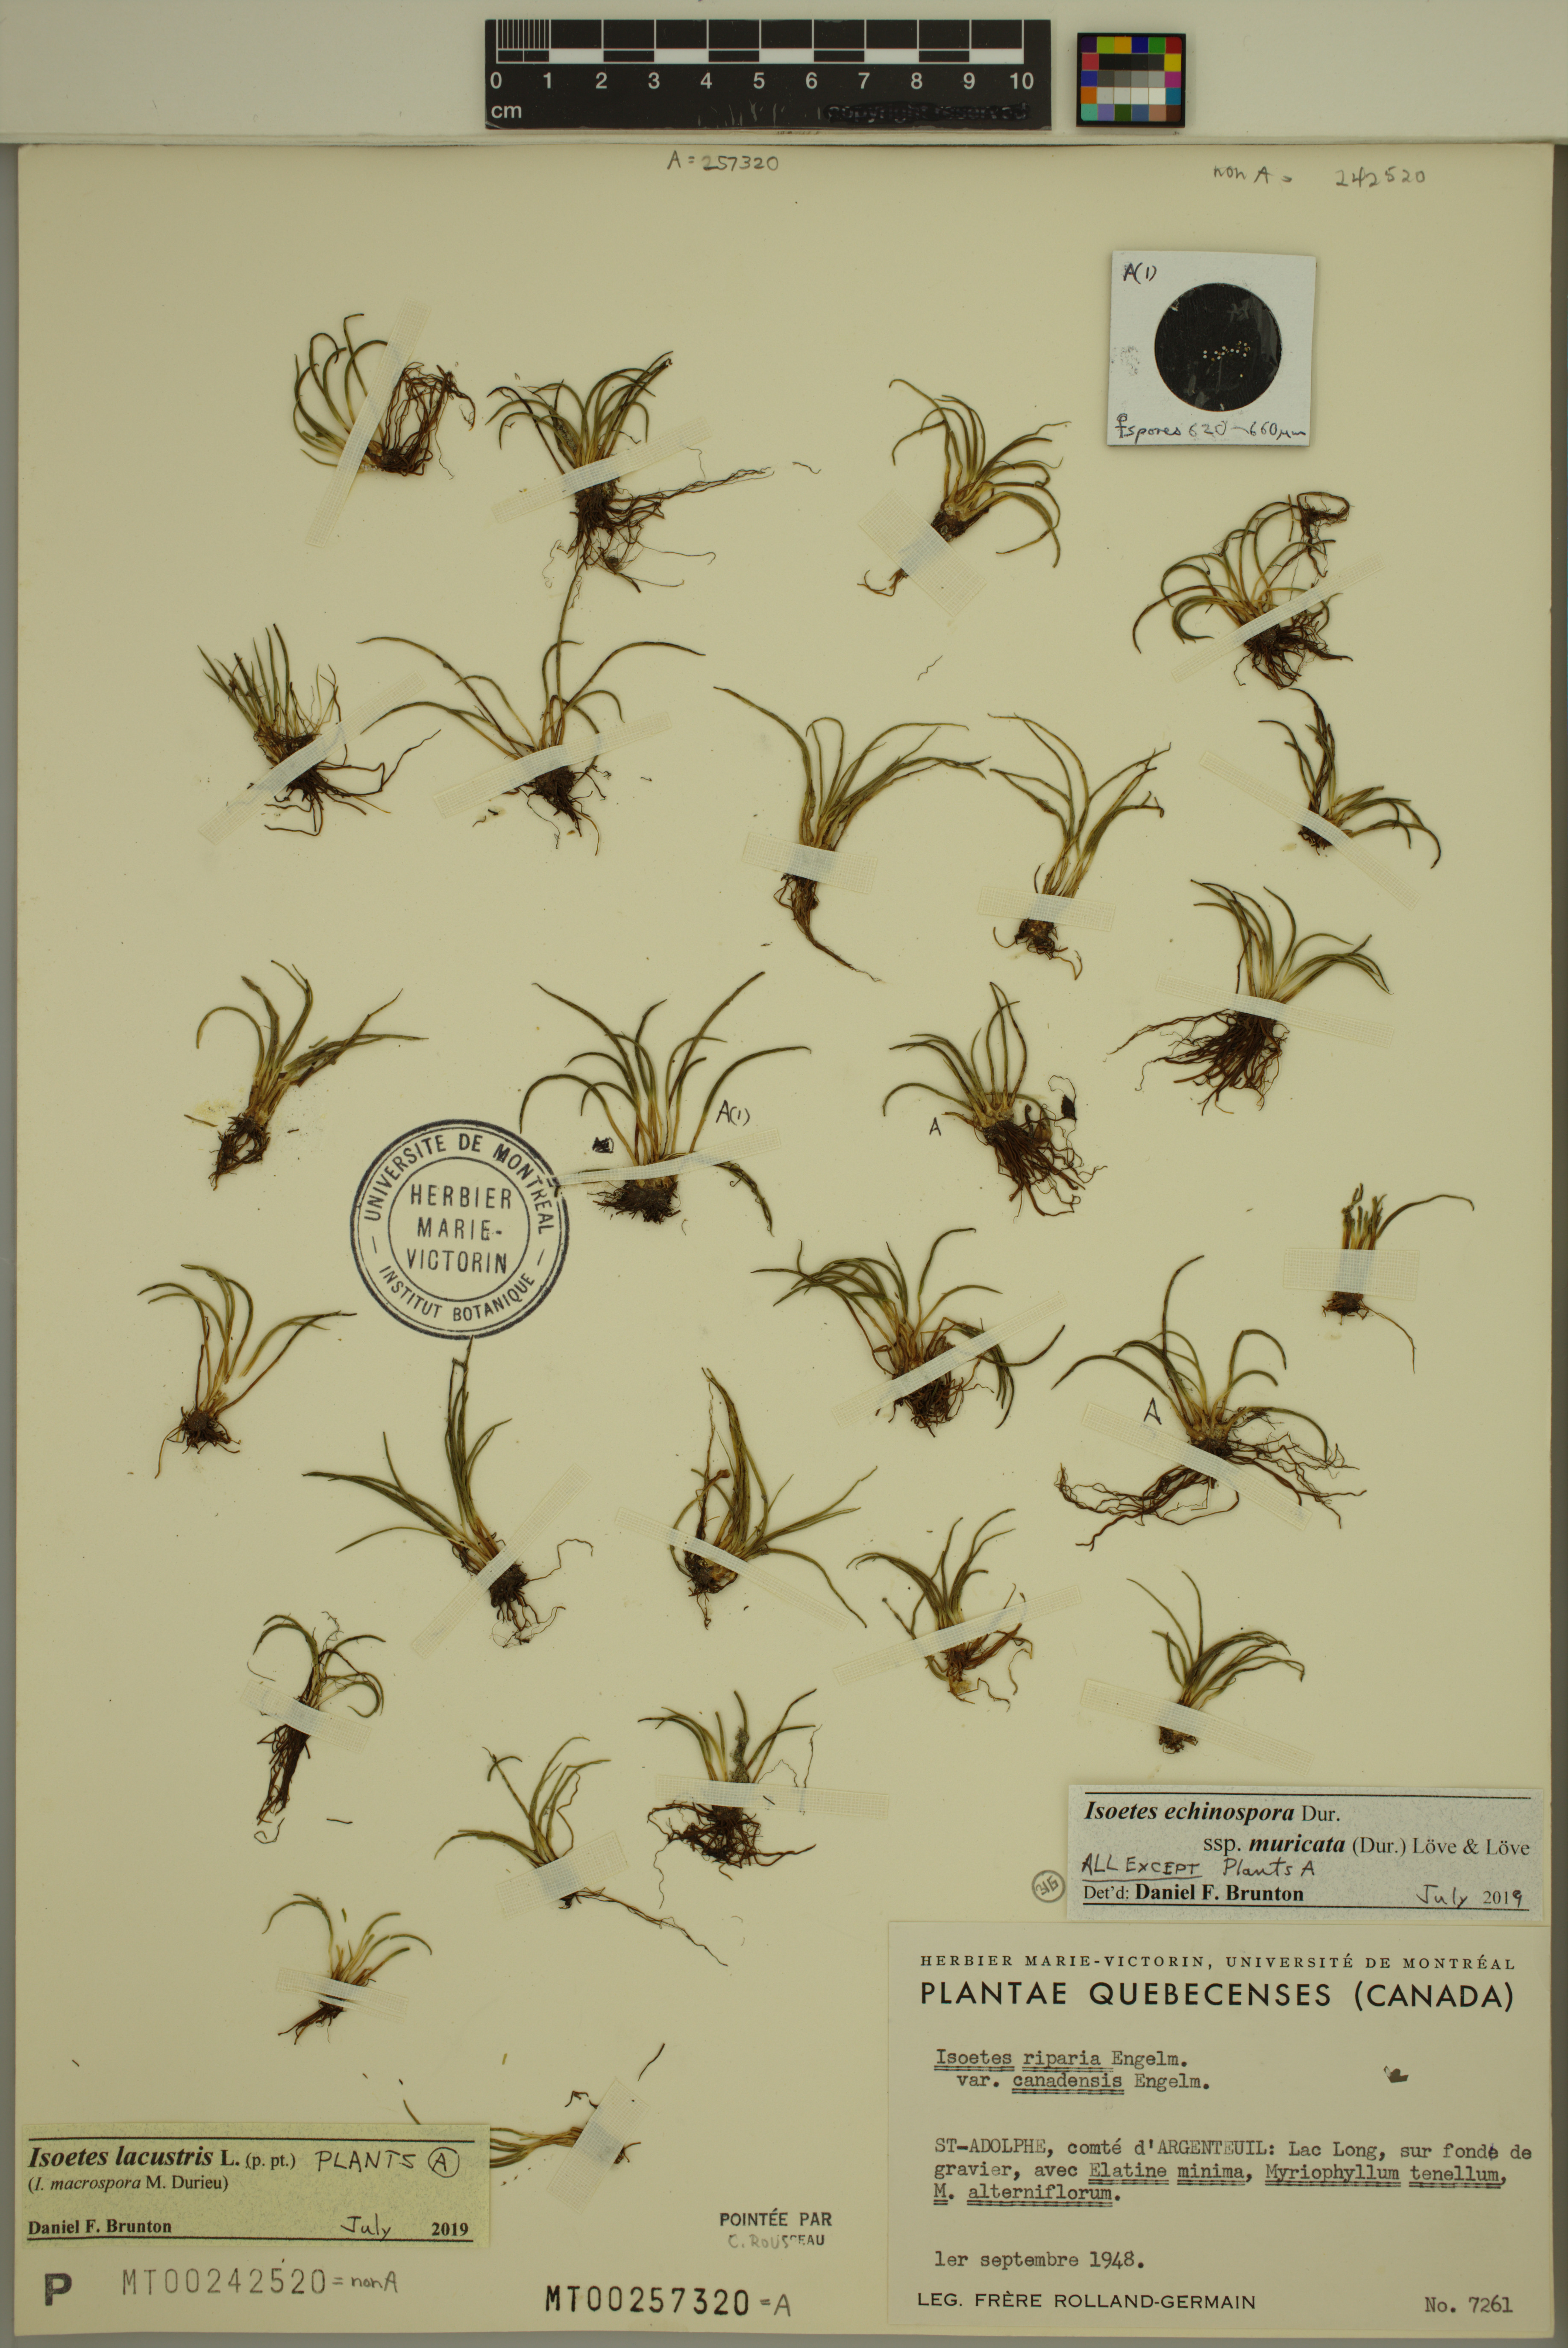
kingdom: Plantae
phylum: Tracheophyta
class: Lycopodiopsida
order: Isoetales
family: Isoetaceae
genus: Isoetes
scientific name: Isoetes echinospora
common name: Spring quillwort
